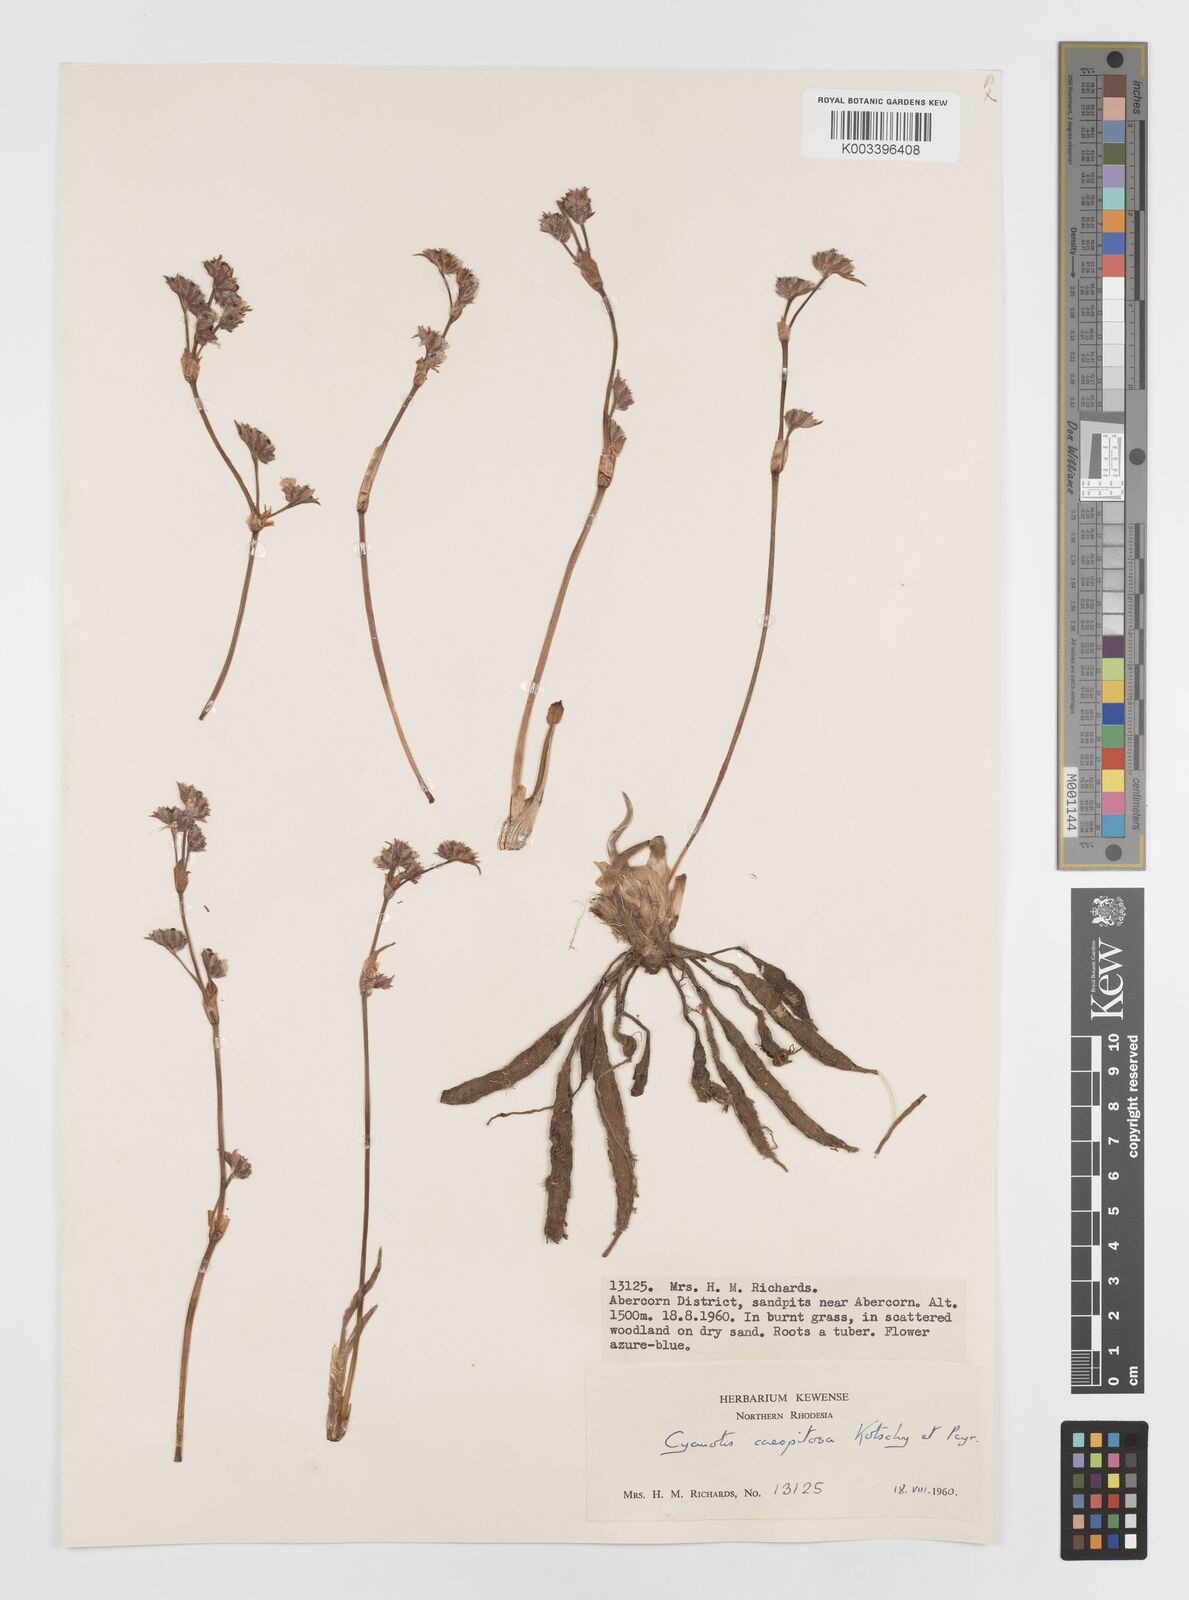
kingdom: Plantae
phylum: Tracheophyta
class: Liliopsida
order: Commelinales
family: Commelinaceae
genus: Cyanotis
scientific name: Cyanotis caespitosa
